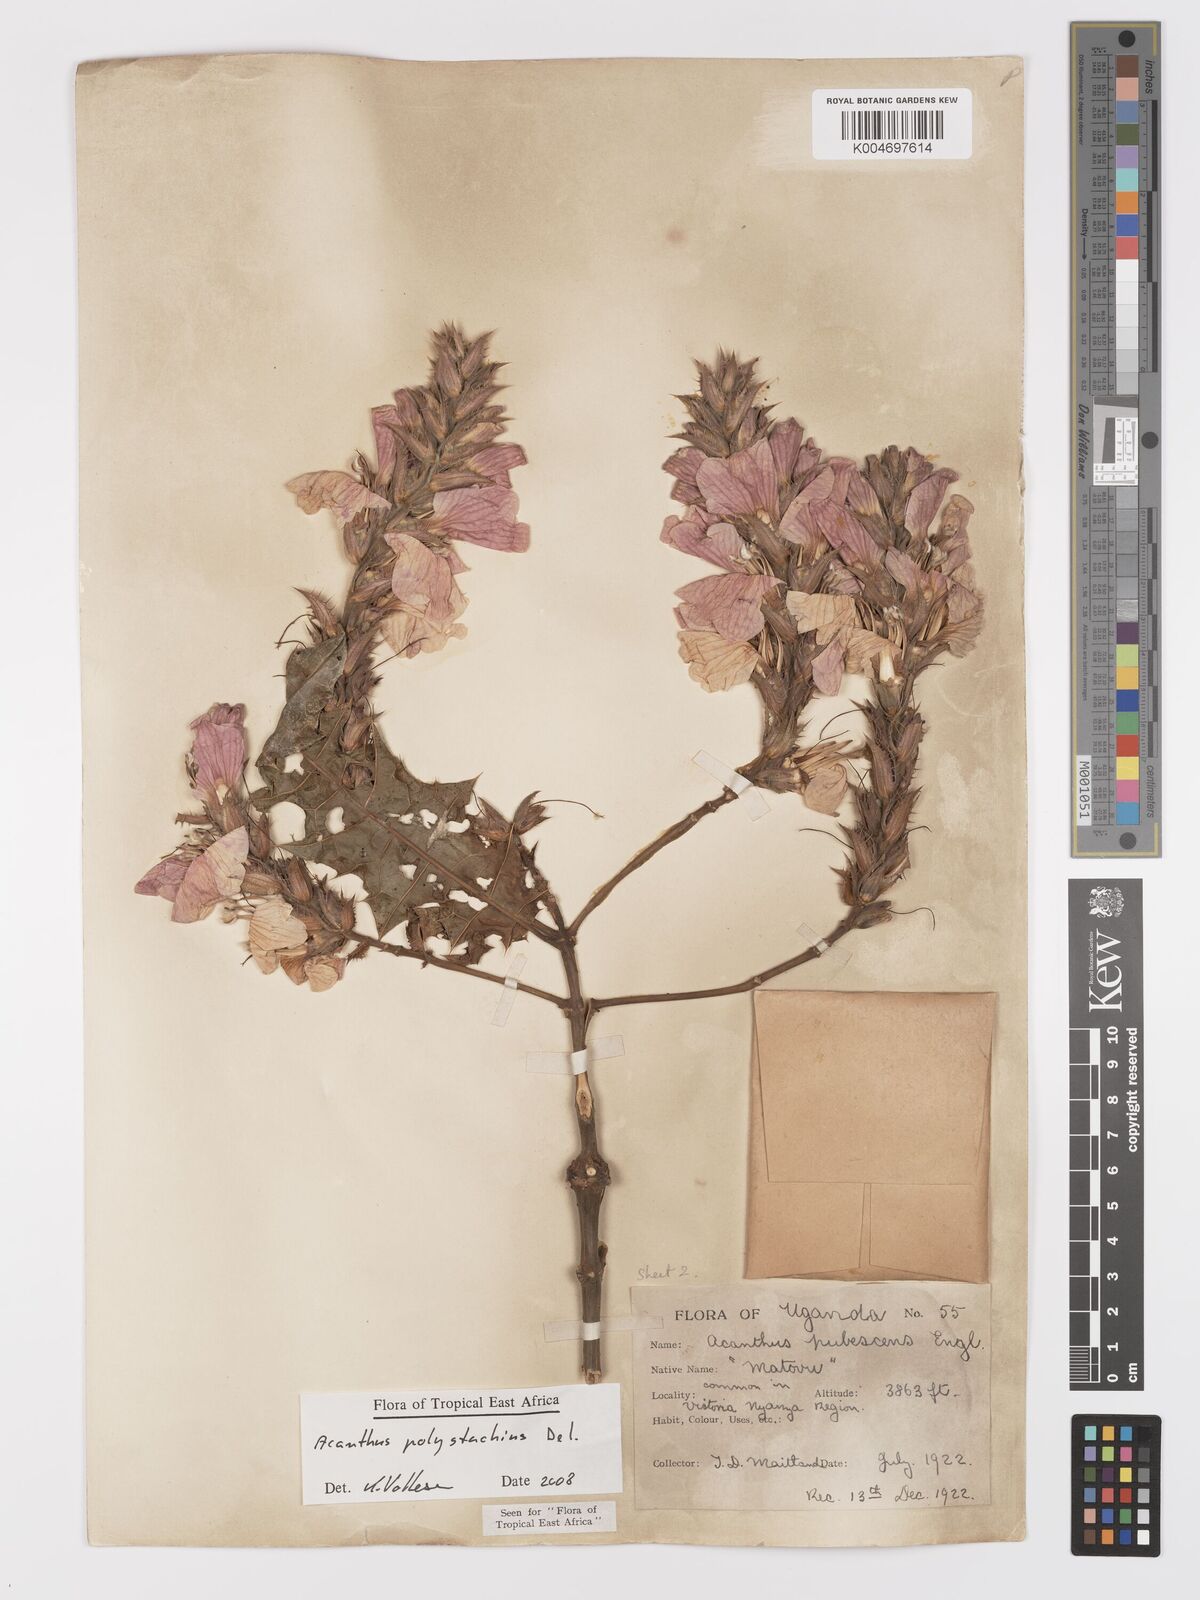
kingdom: Plantae
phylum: Tracheophyta
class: Magnoliopsida
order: Lamiales
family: Acanthaceae
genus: Acanthus
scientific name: Acanthus polystachyus
